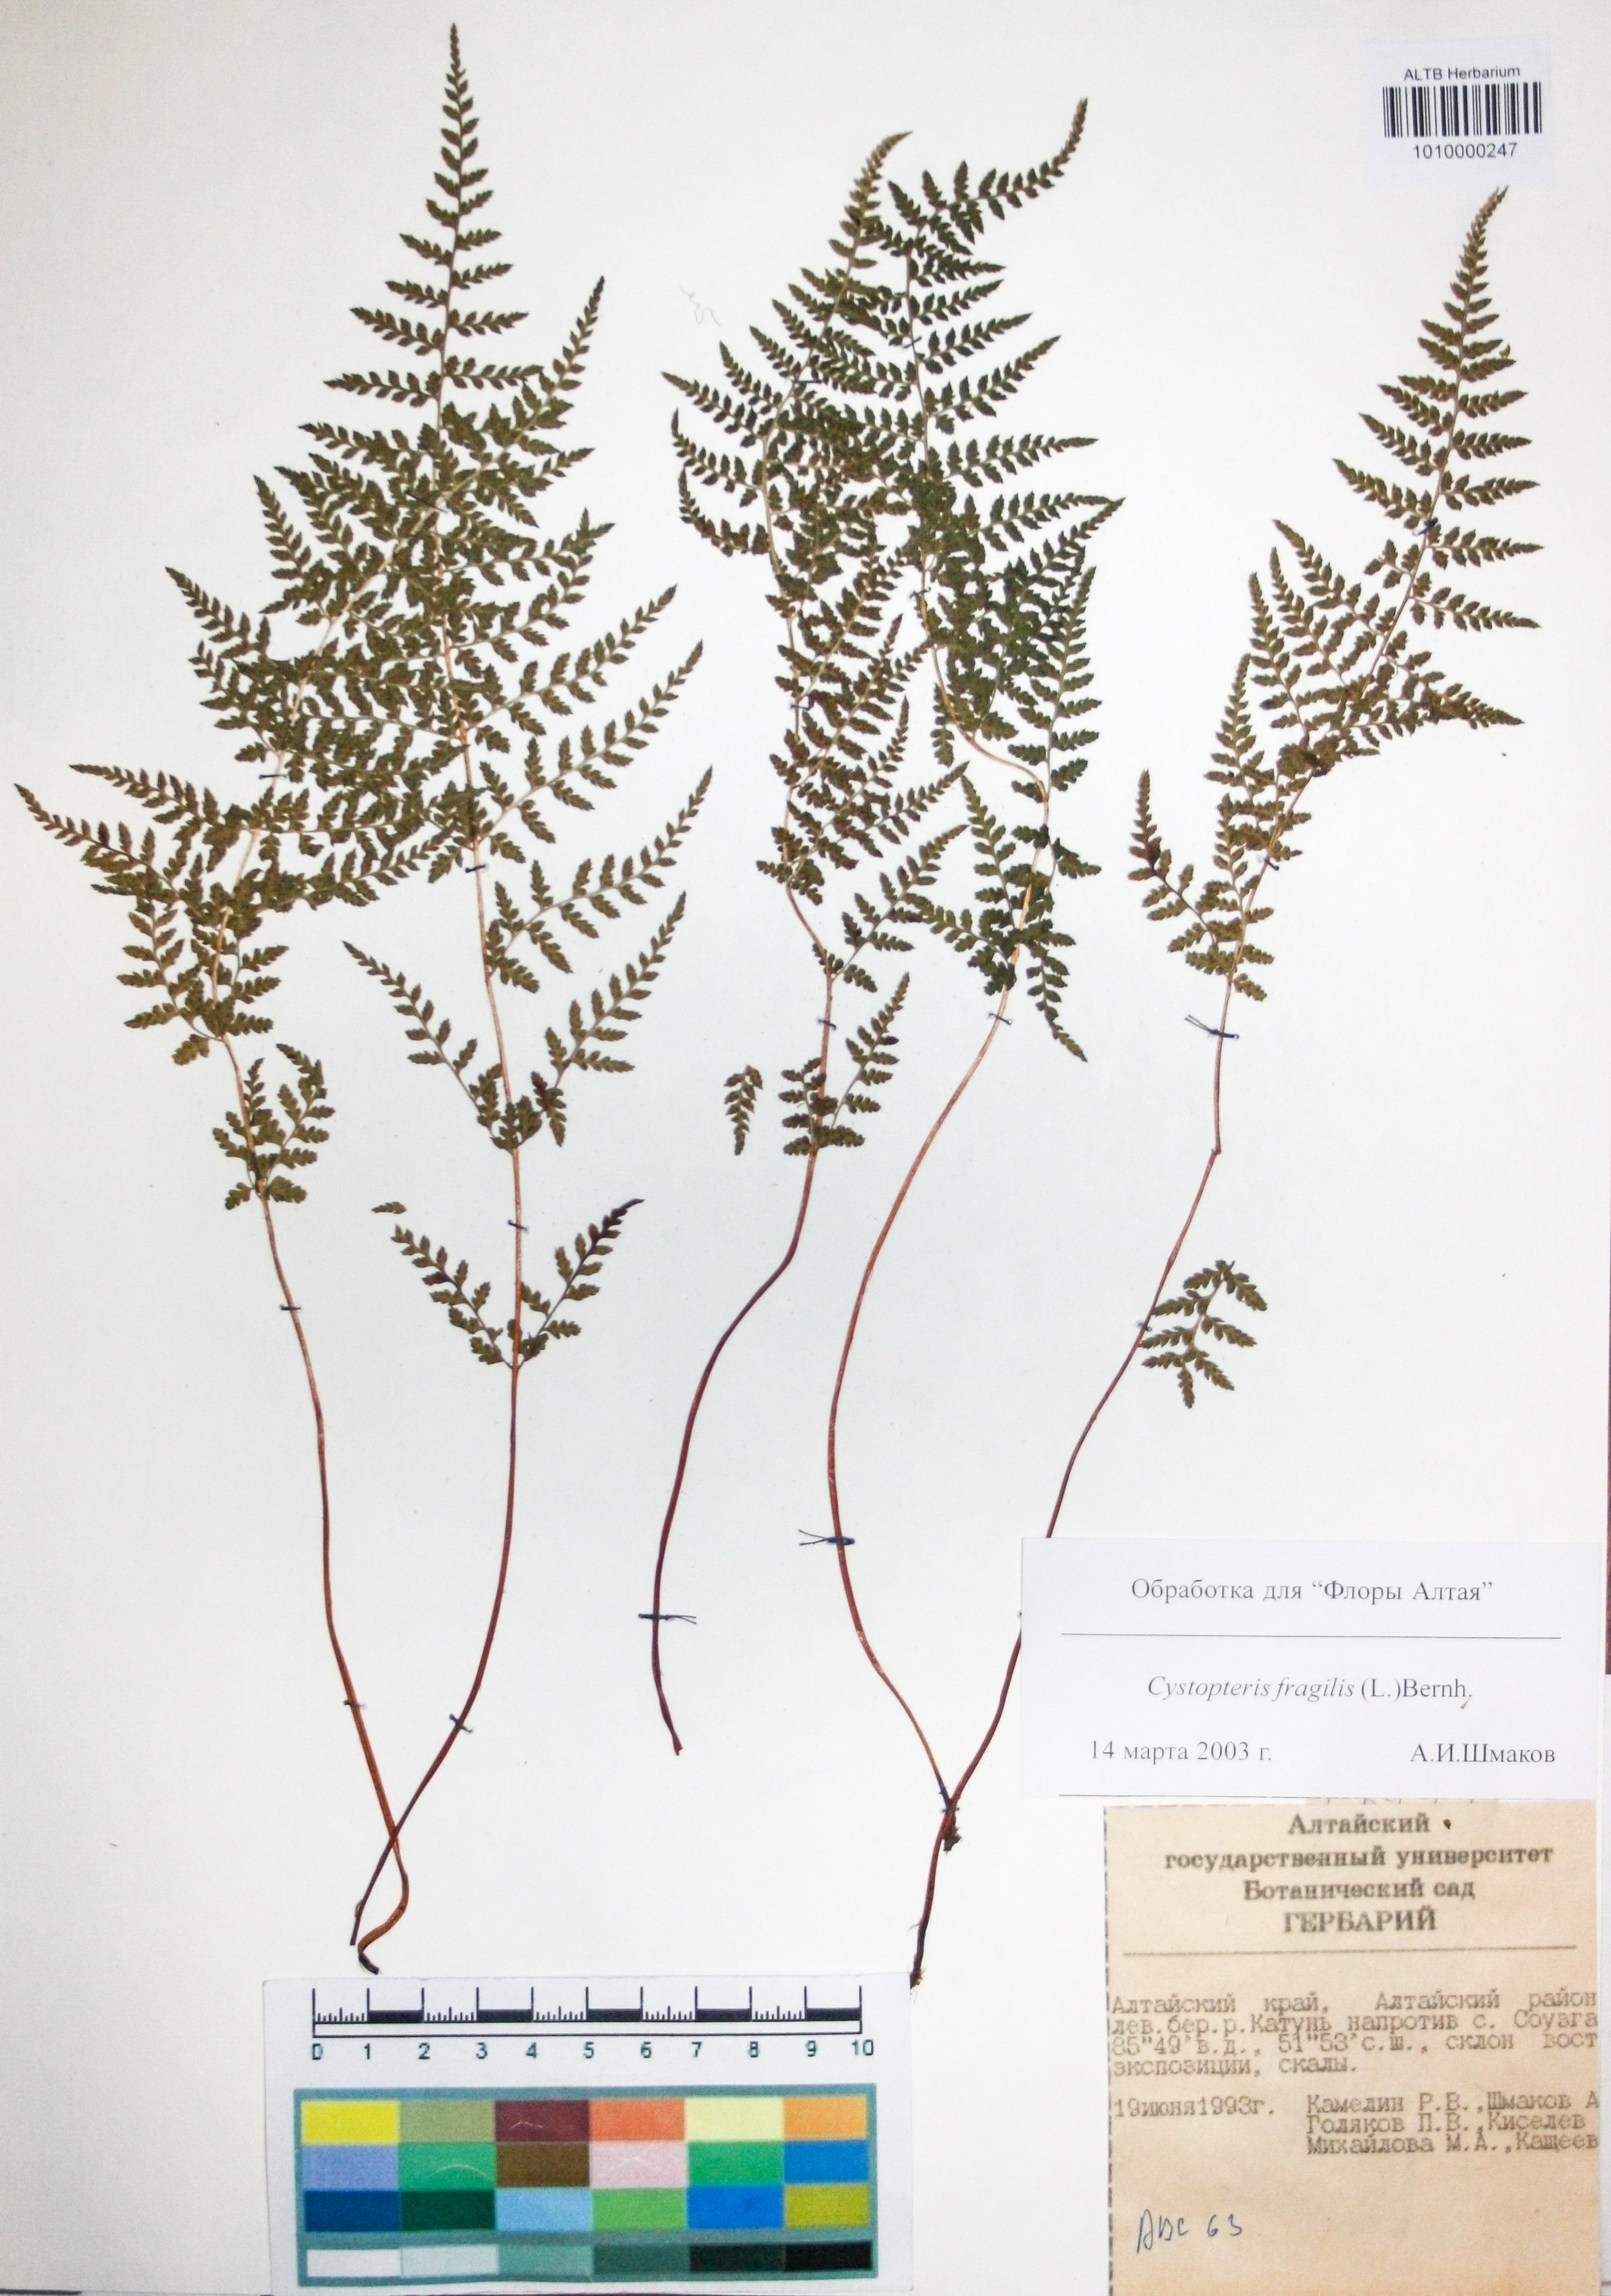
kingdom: Plantae
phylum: Tracheophyta
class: Polypodiopsida
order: Polypodiales
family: Cystopteridaceae
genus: Cystopteris
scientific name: Cystopteris fragilis
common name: Brittle bladder fern
